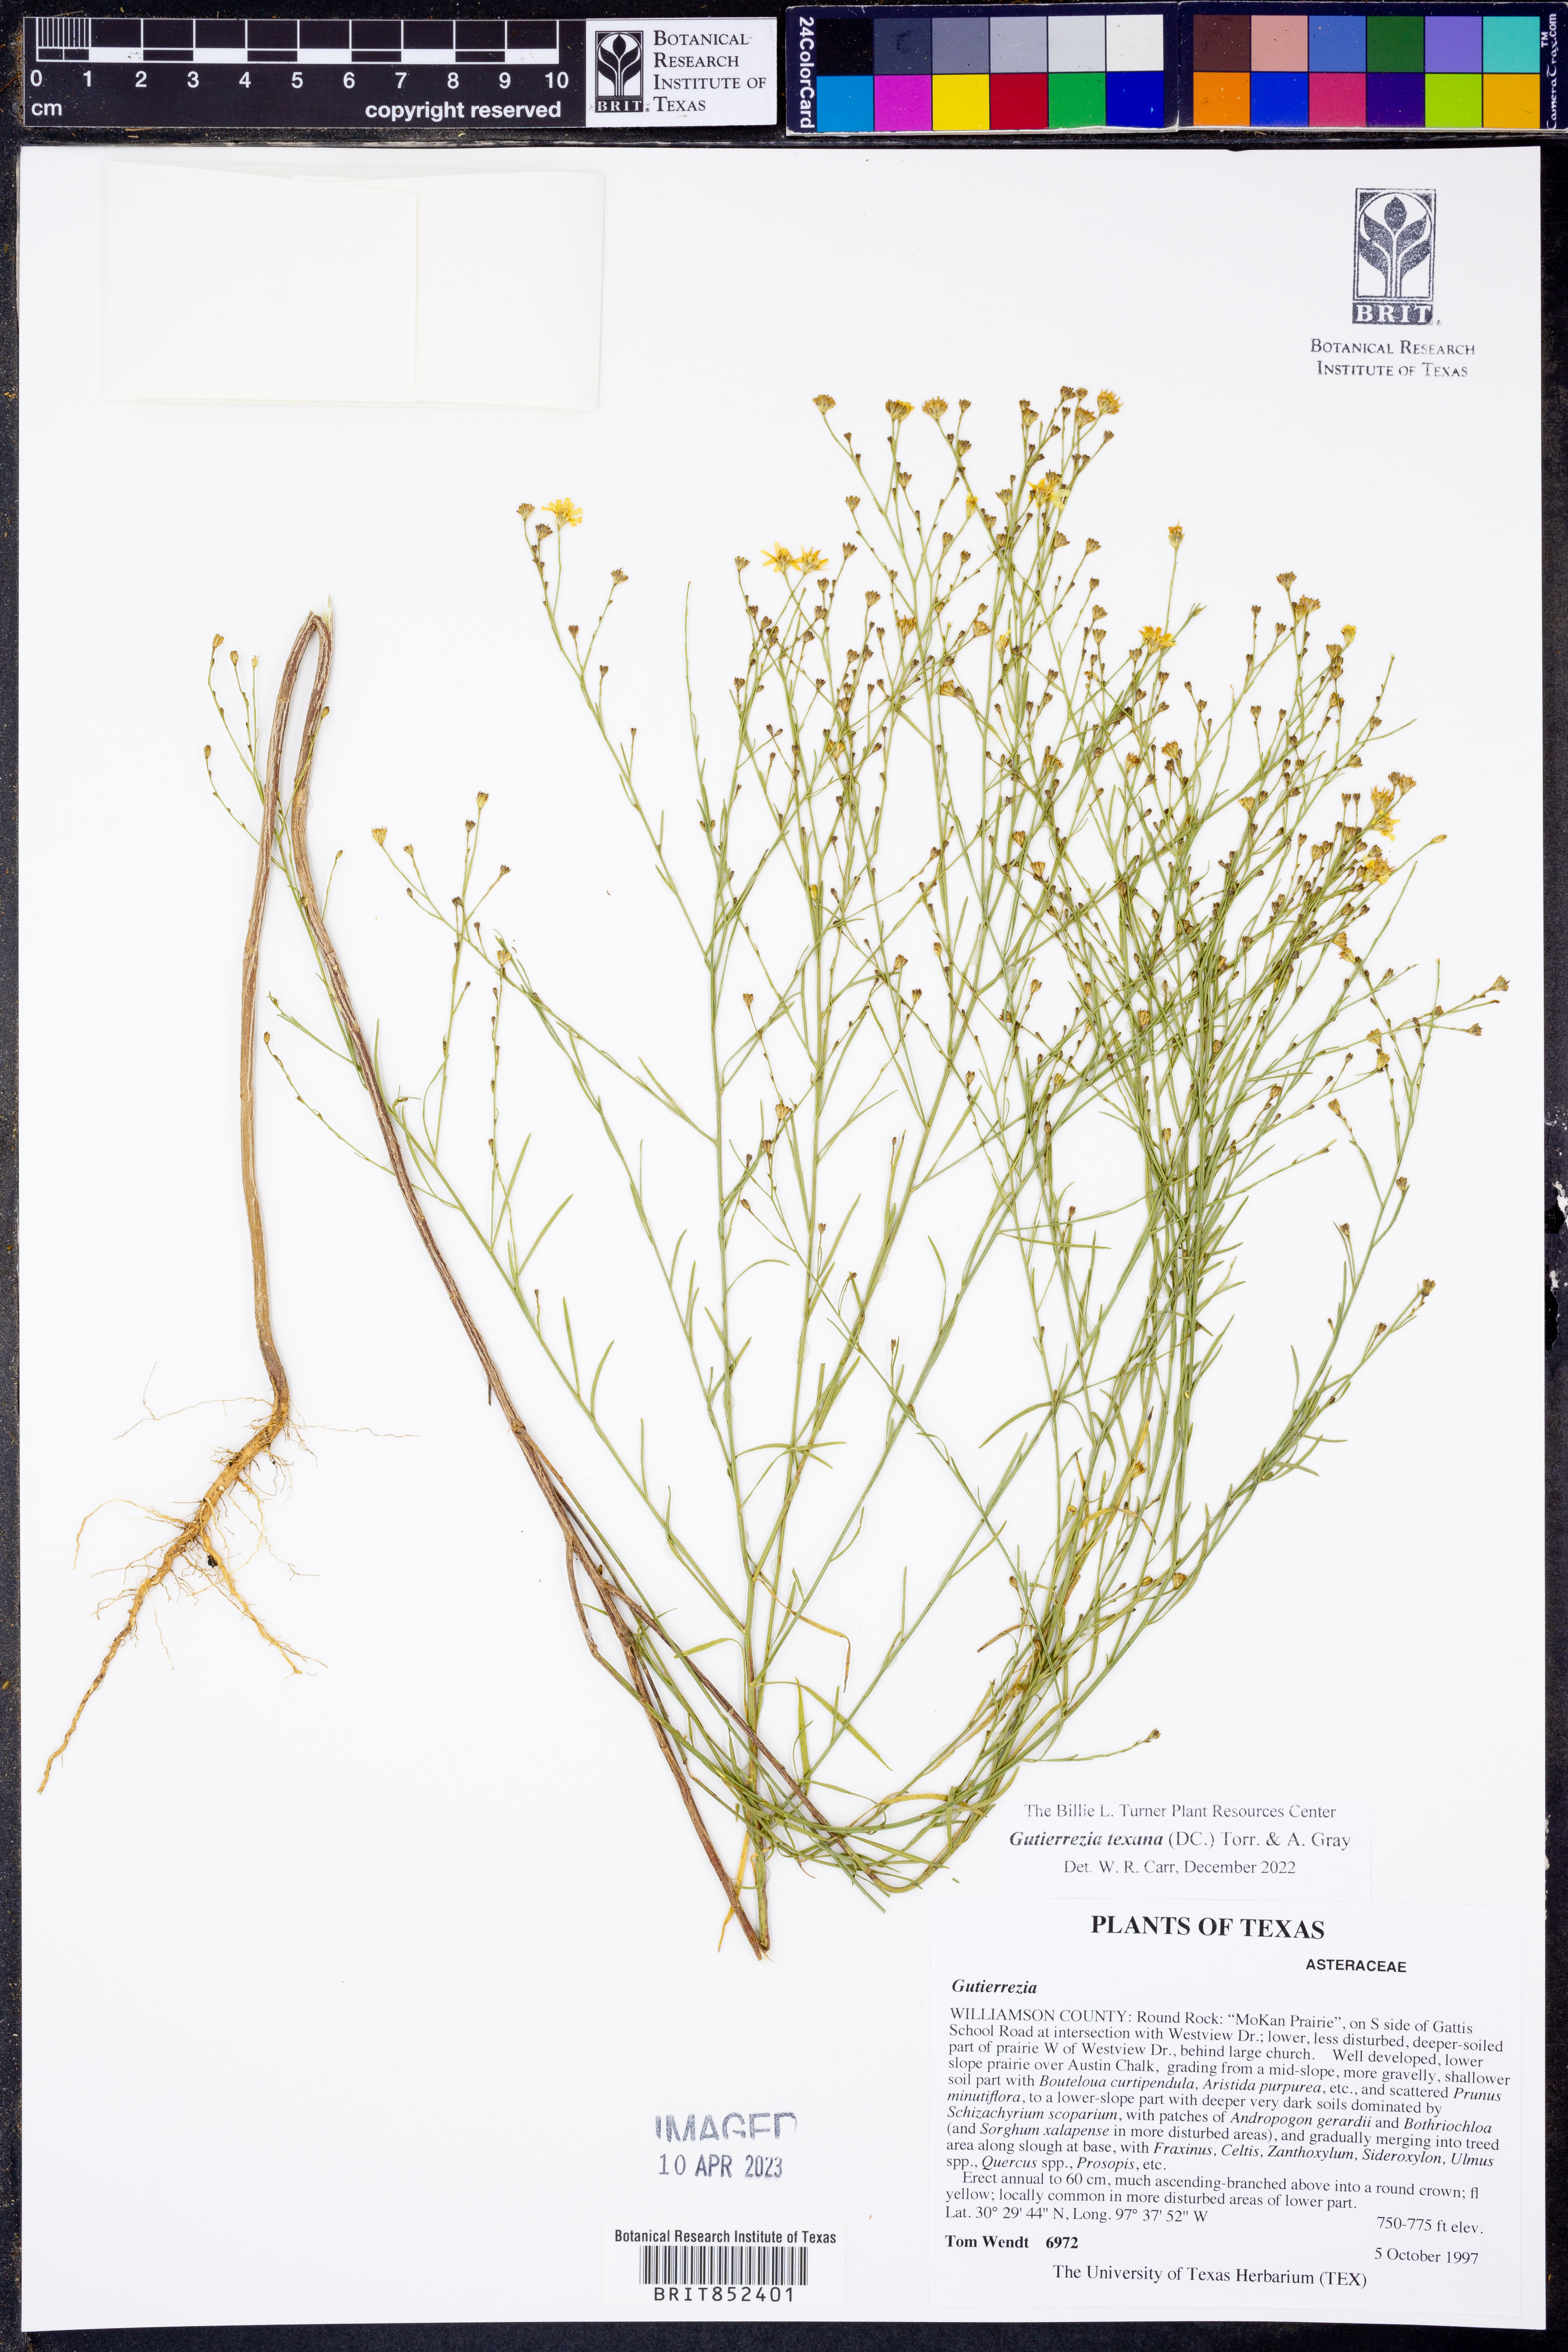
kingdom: Plantae
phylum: Tracheophyta
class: Magnoliopsida
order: Asterales
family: Asteraceae
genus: Gutierrezia
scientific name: Gutierrezia texana
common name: Texas snakeweed
